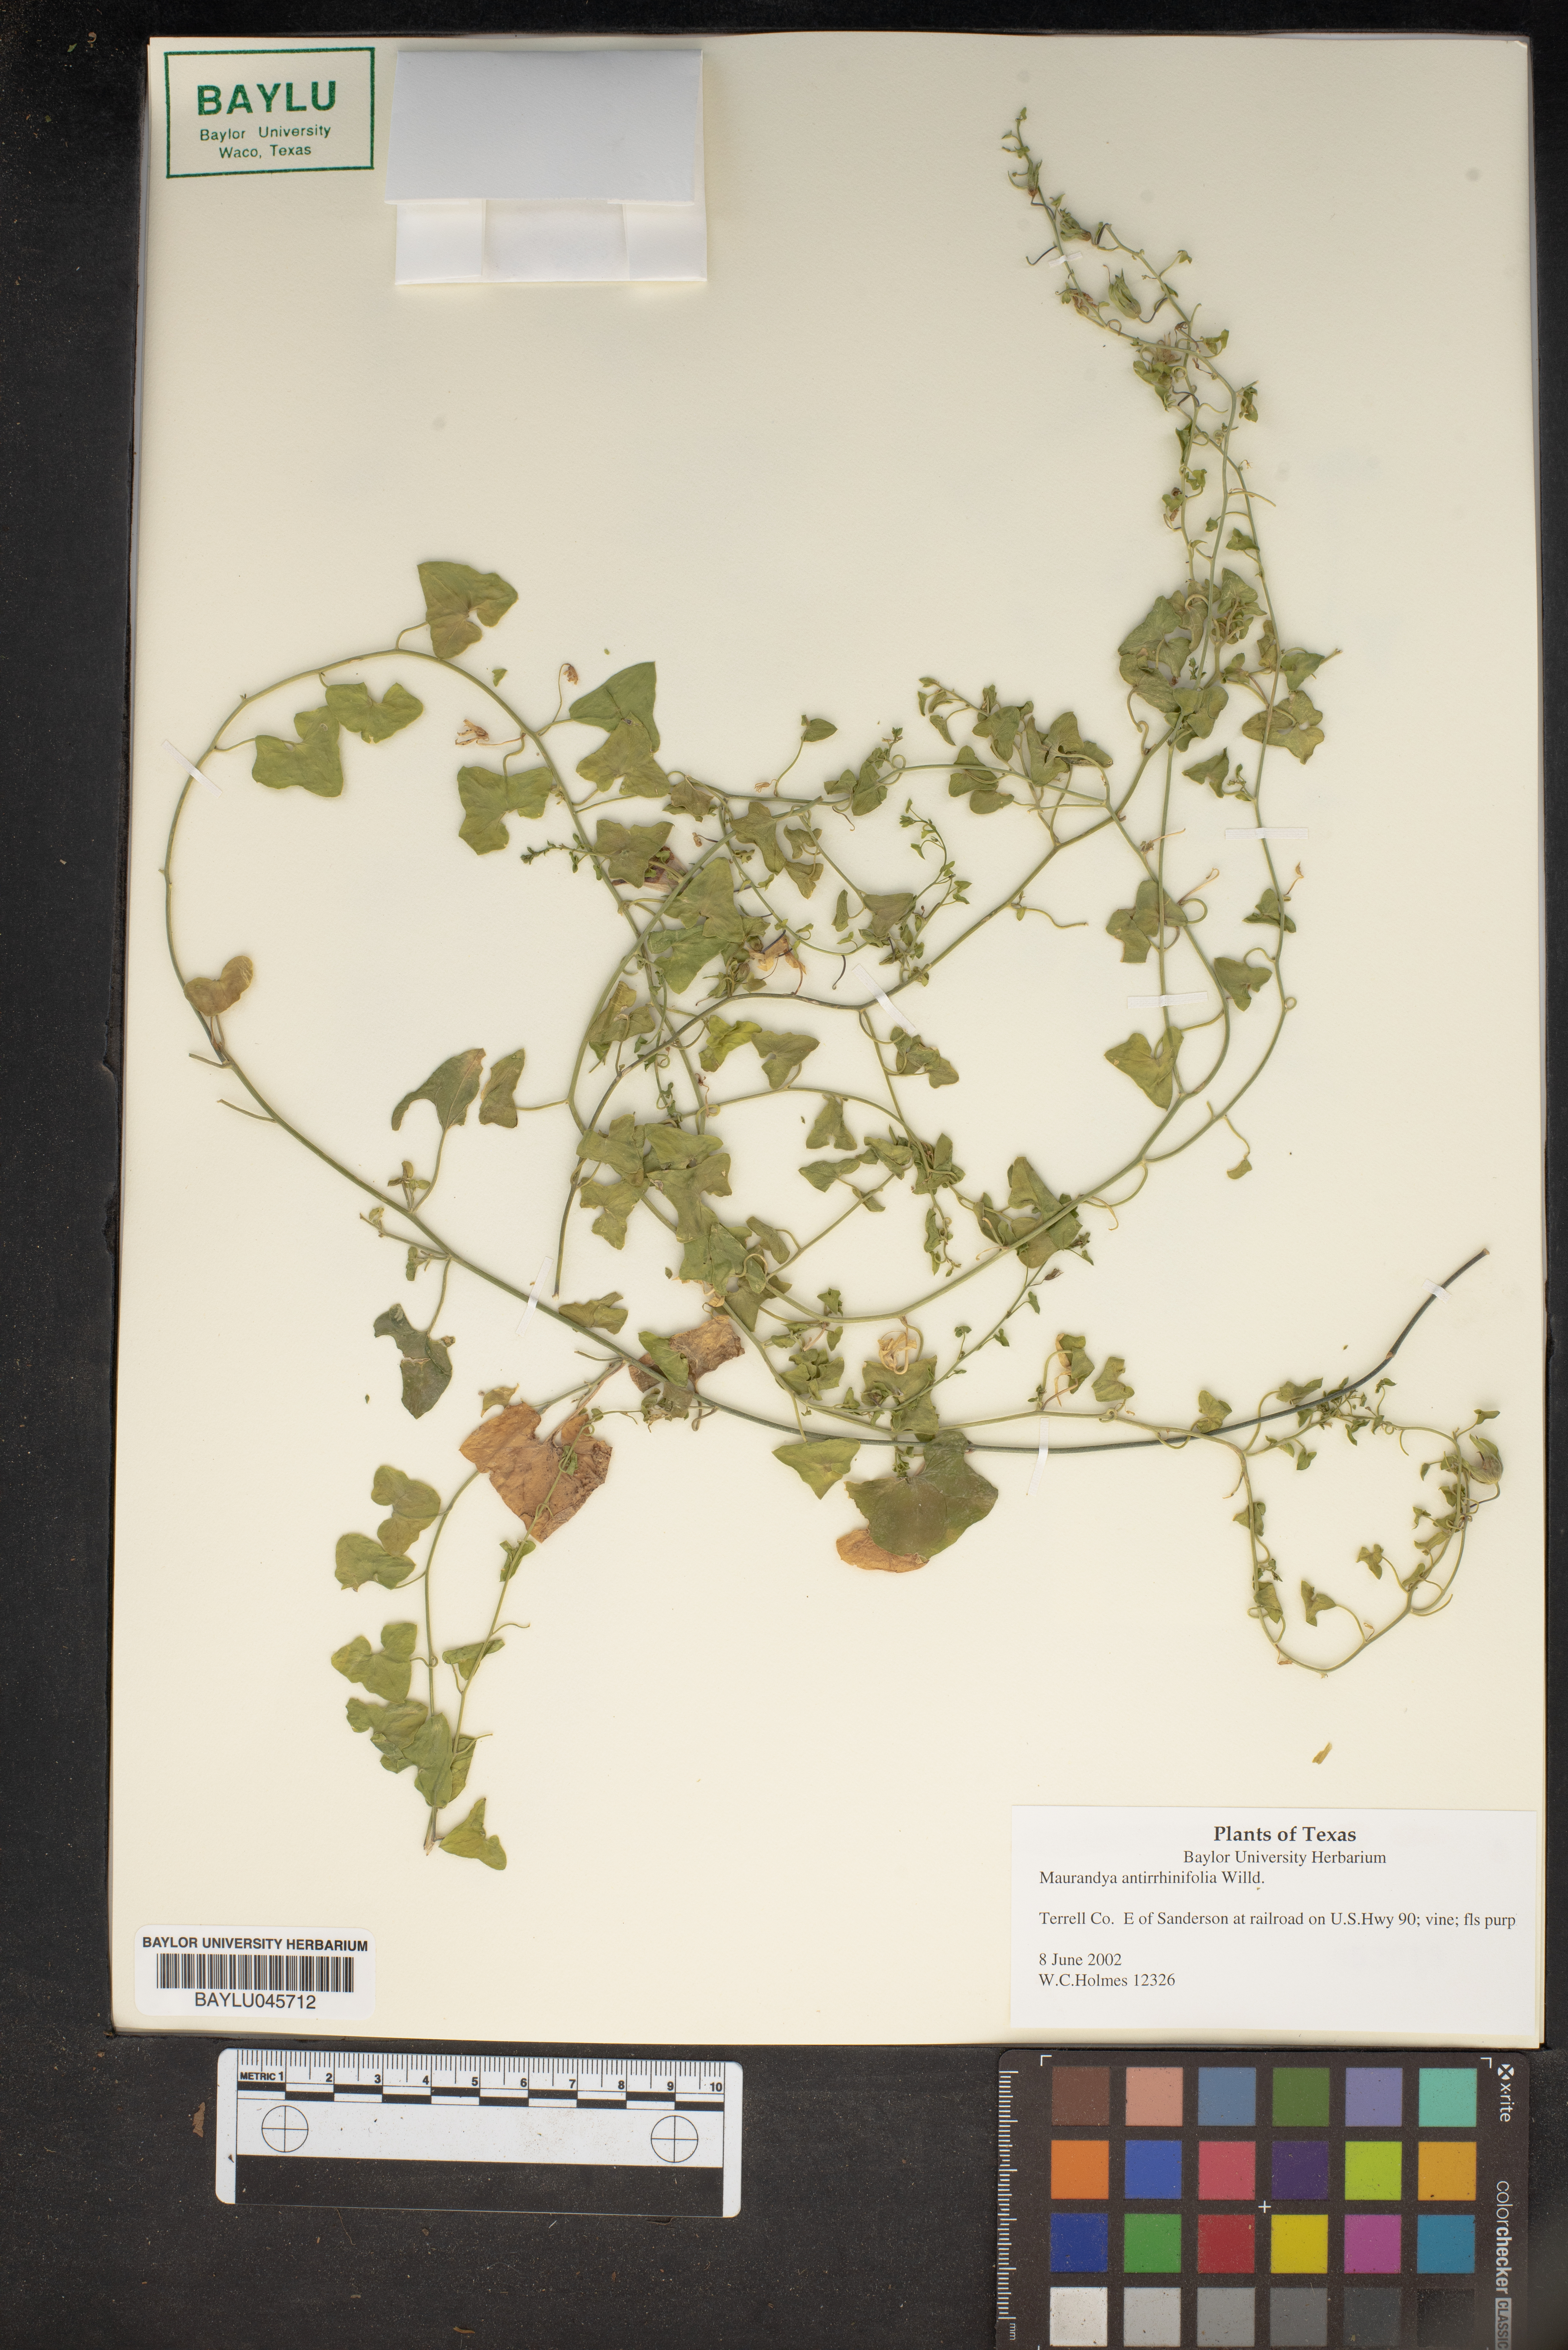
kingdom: Plantae
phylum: Tracheophyta
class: Magnoliopsida
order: Lamiales
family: Plantaginaceae
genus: Maurandella
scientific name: Maurandella antirrhiniflora
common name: Violet twining-snapdragon
